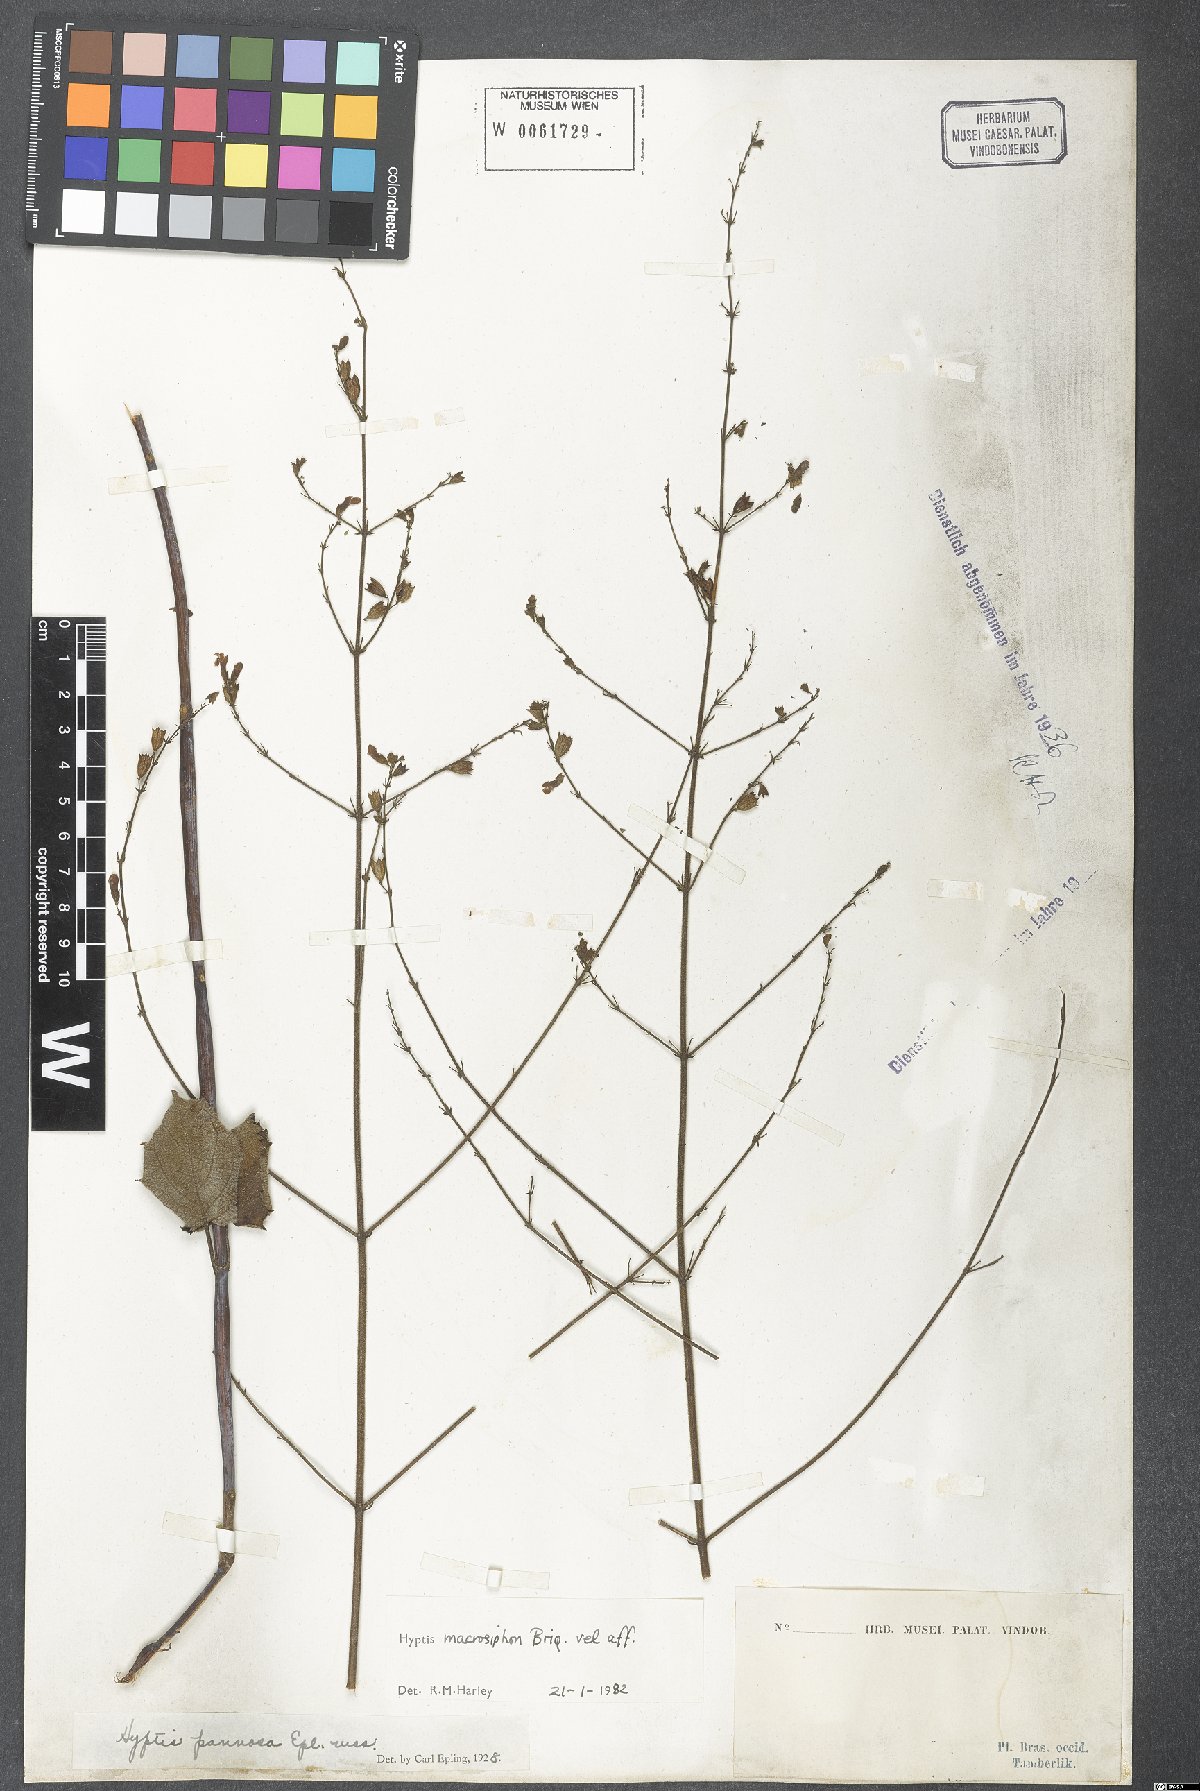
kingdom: Plantae
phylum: Tracheophyta
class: Magnoliopsida
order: Lamiales
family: Lamiaceae
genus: Hypenia
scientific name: Hypenia macrosiphon
